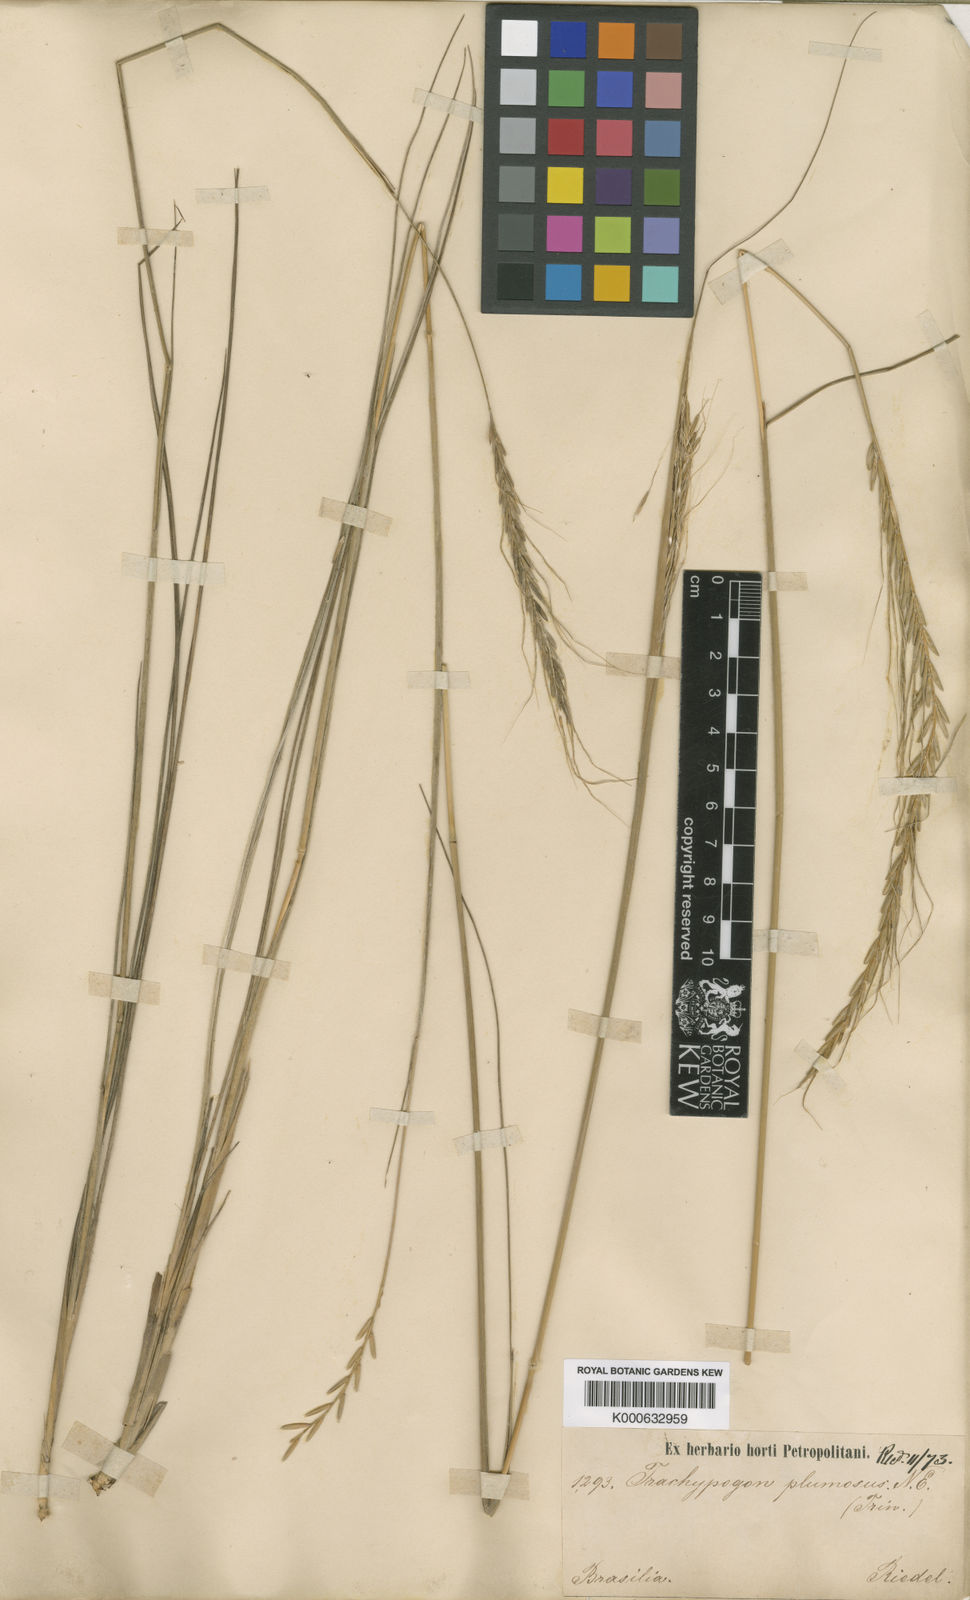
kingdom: Plantae
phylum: Tracheophyta
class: Liliopsida
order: Poales
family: Poaceae
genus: Trachypogon
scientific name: Trachypogon spicatus
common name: Crinkle-awn
